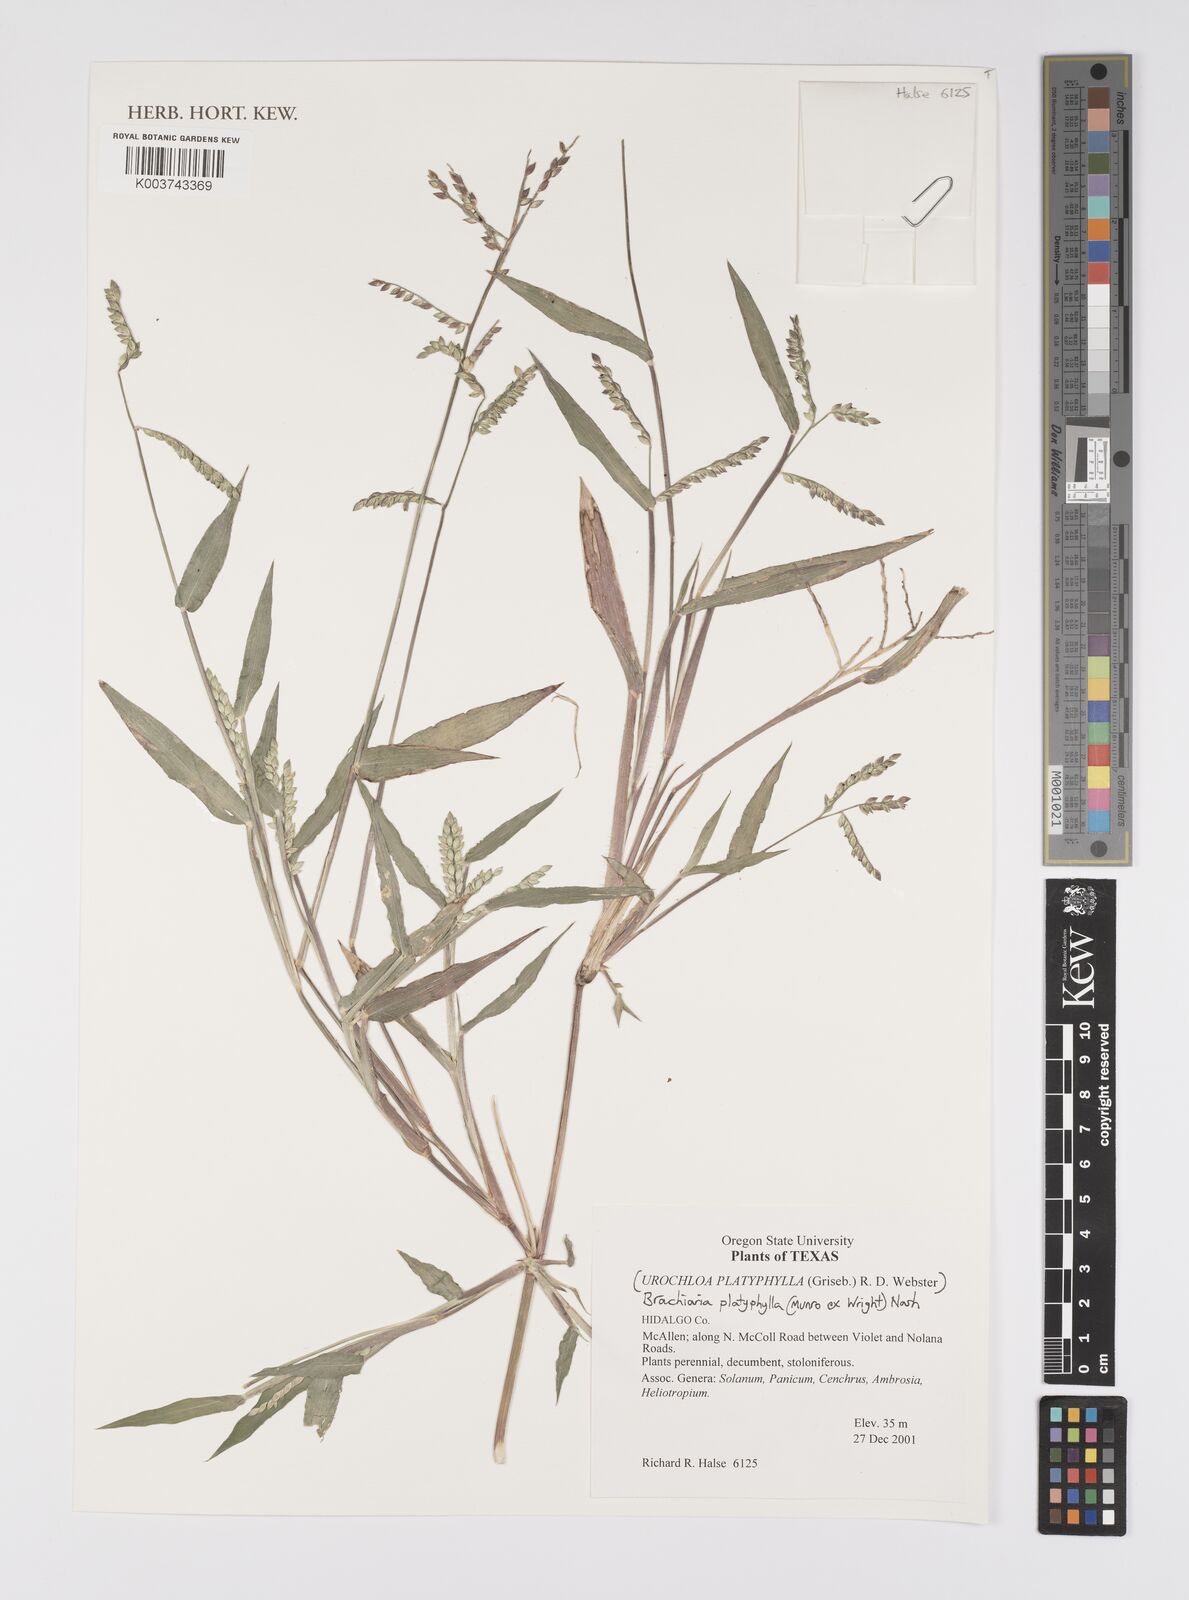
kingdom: Plantae
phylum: Tracheophyta
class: Liliopsida
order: Poales
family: Poaceae
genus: Urochloa
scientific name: Urochloa platyphylla
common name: White para grass
